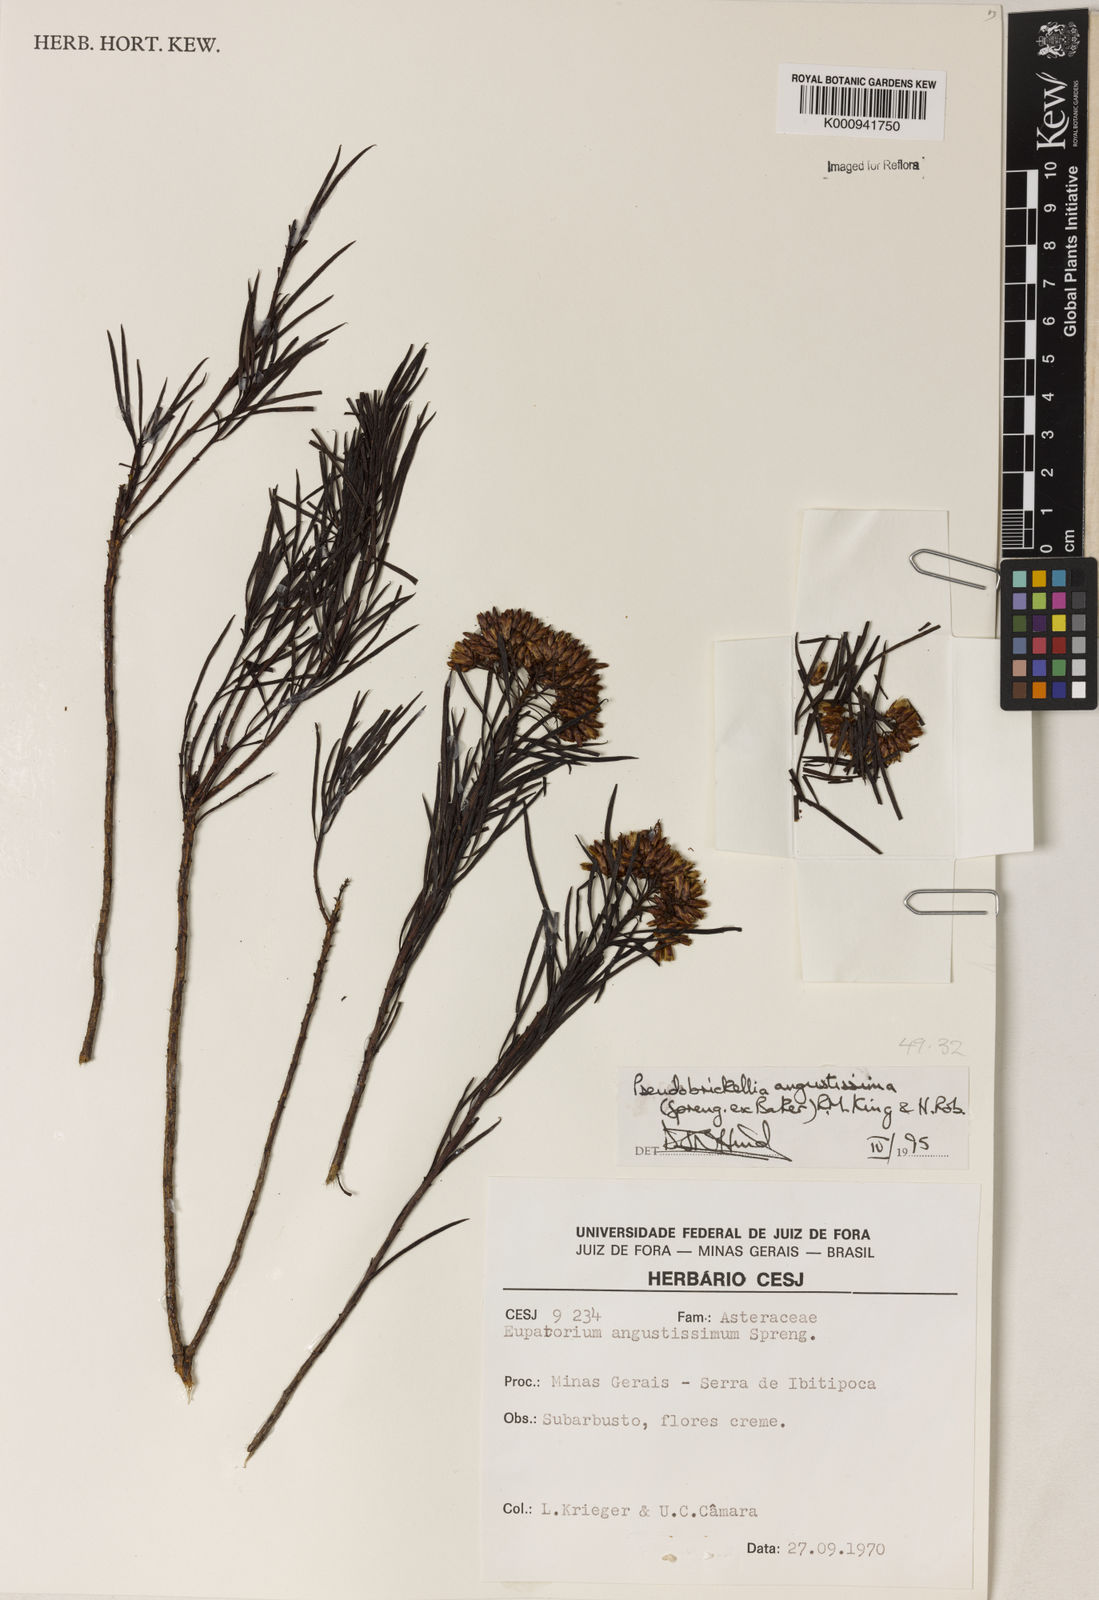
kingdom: Plantae
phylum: Tracheophyta
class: Magnoliopsida
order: Asterales
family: Asteraceae
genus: Pseudobrickellia
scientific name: Pseudobrickellia angustissima
